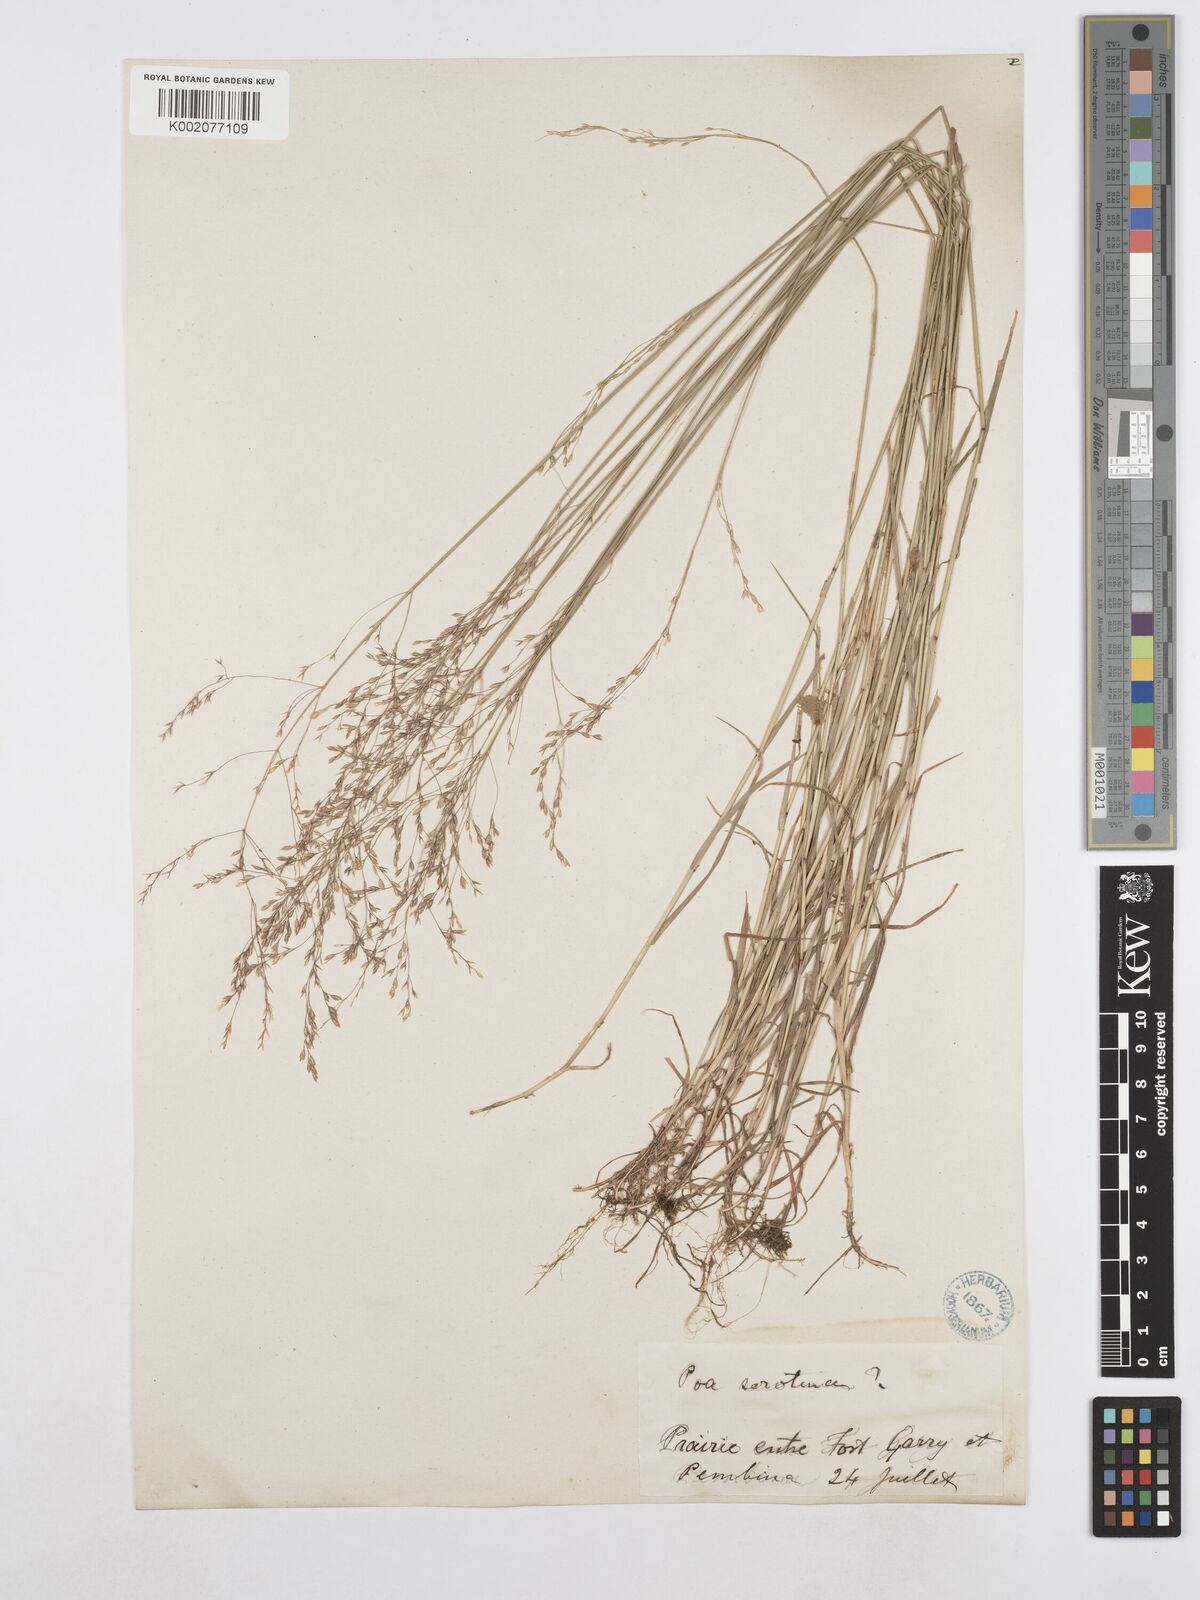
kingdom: Plantae
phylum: Tracheophyta
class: Liliopsida
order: Poales
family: Poaceae
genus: Poa
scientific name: Poa palustris
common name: Swamp meadow-grass
